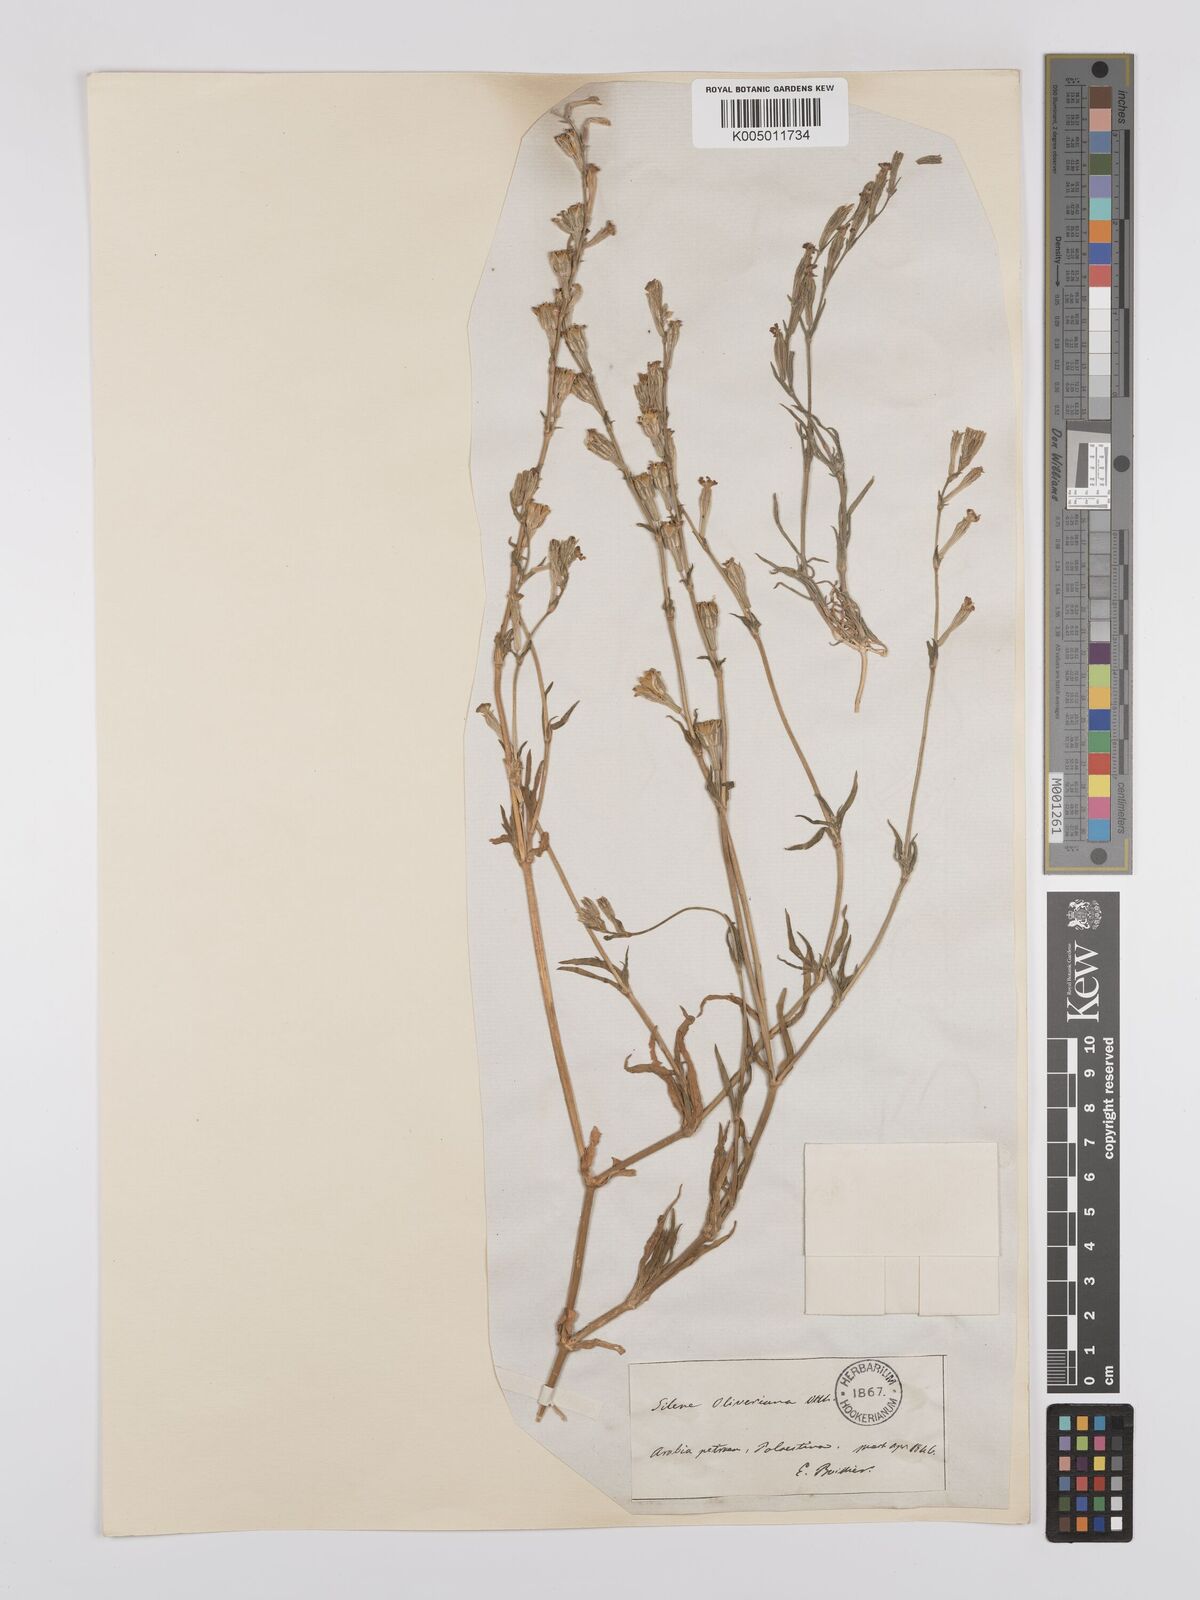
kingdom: Plantae
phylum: Tracheophyta
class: Magnoliopsida
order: Caryophyllales
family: Caryophyllaceae
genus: Silene
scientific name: Silene oliveriana
